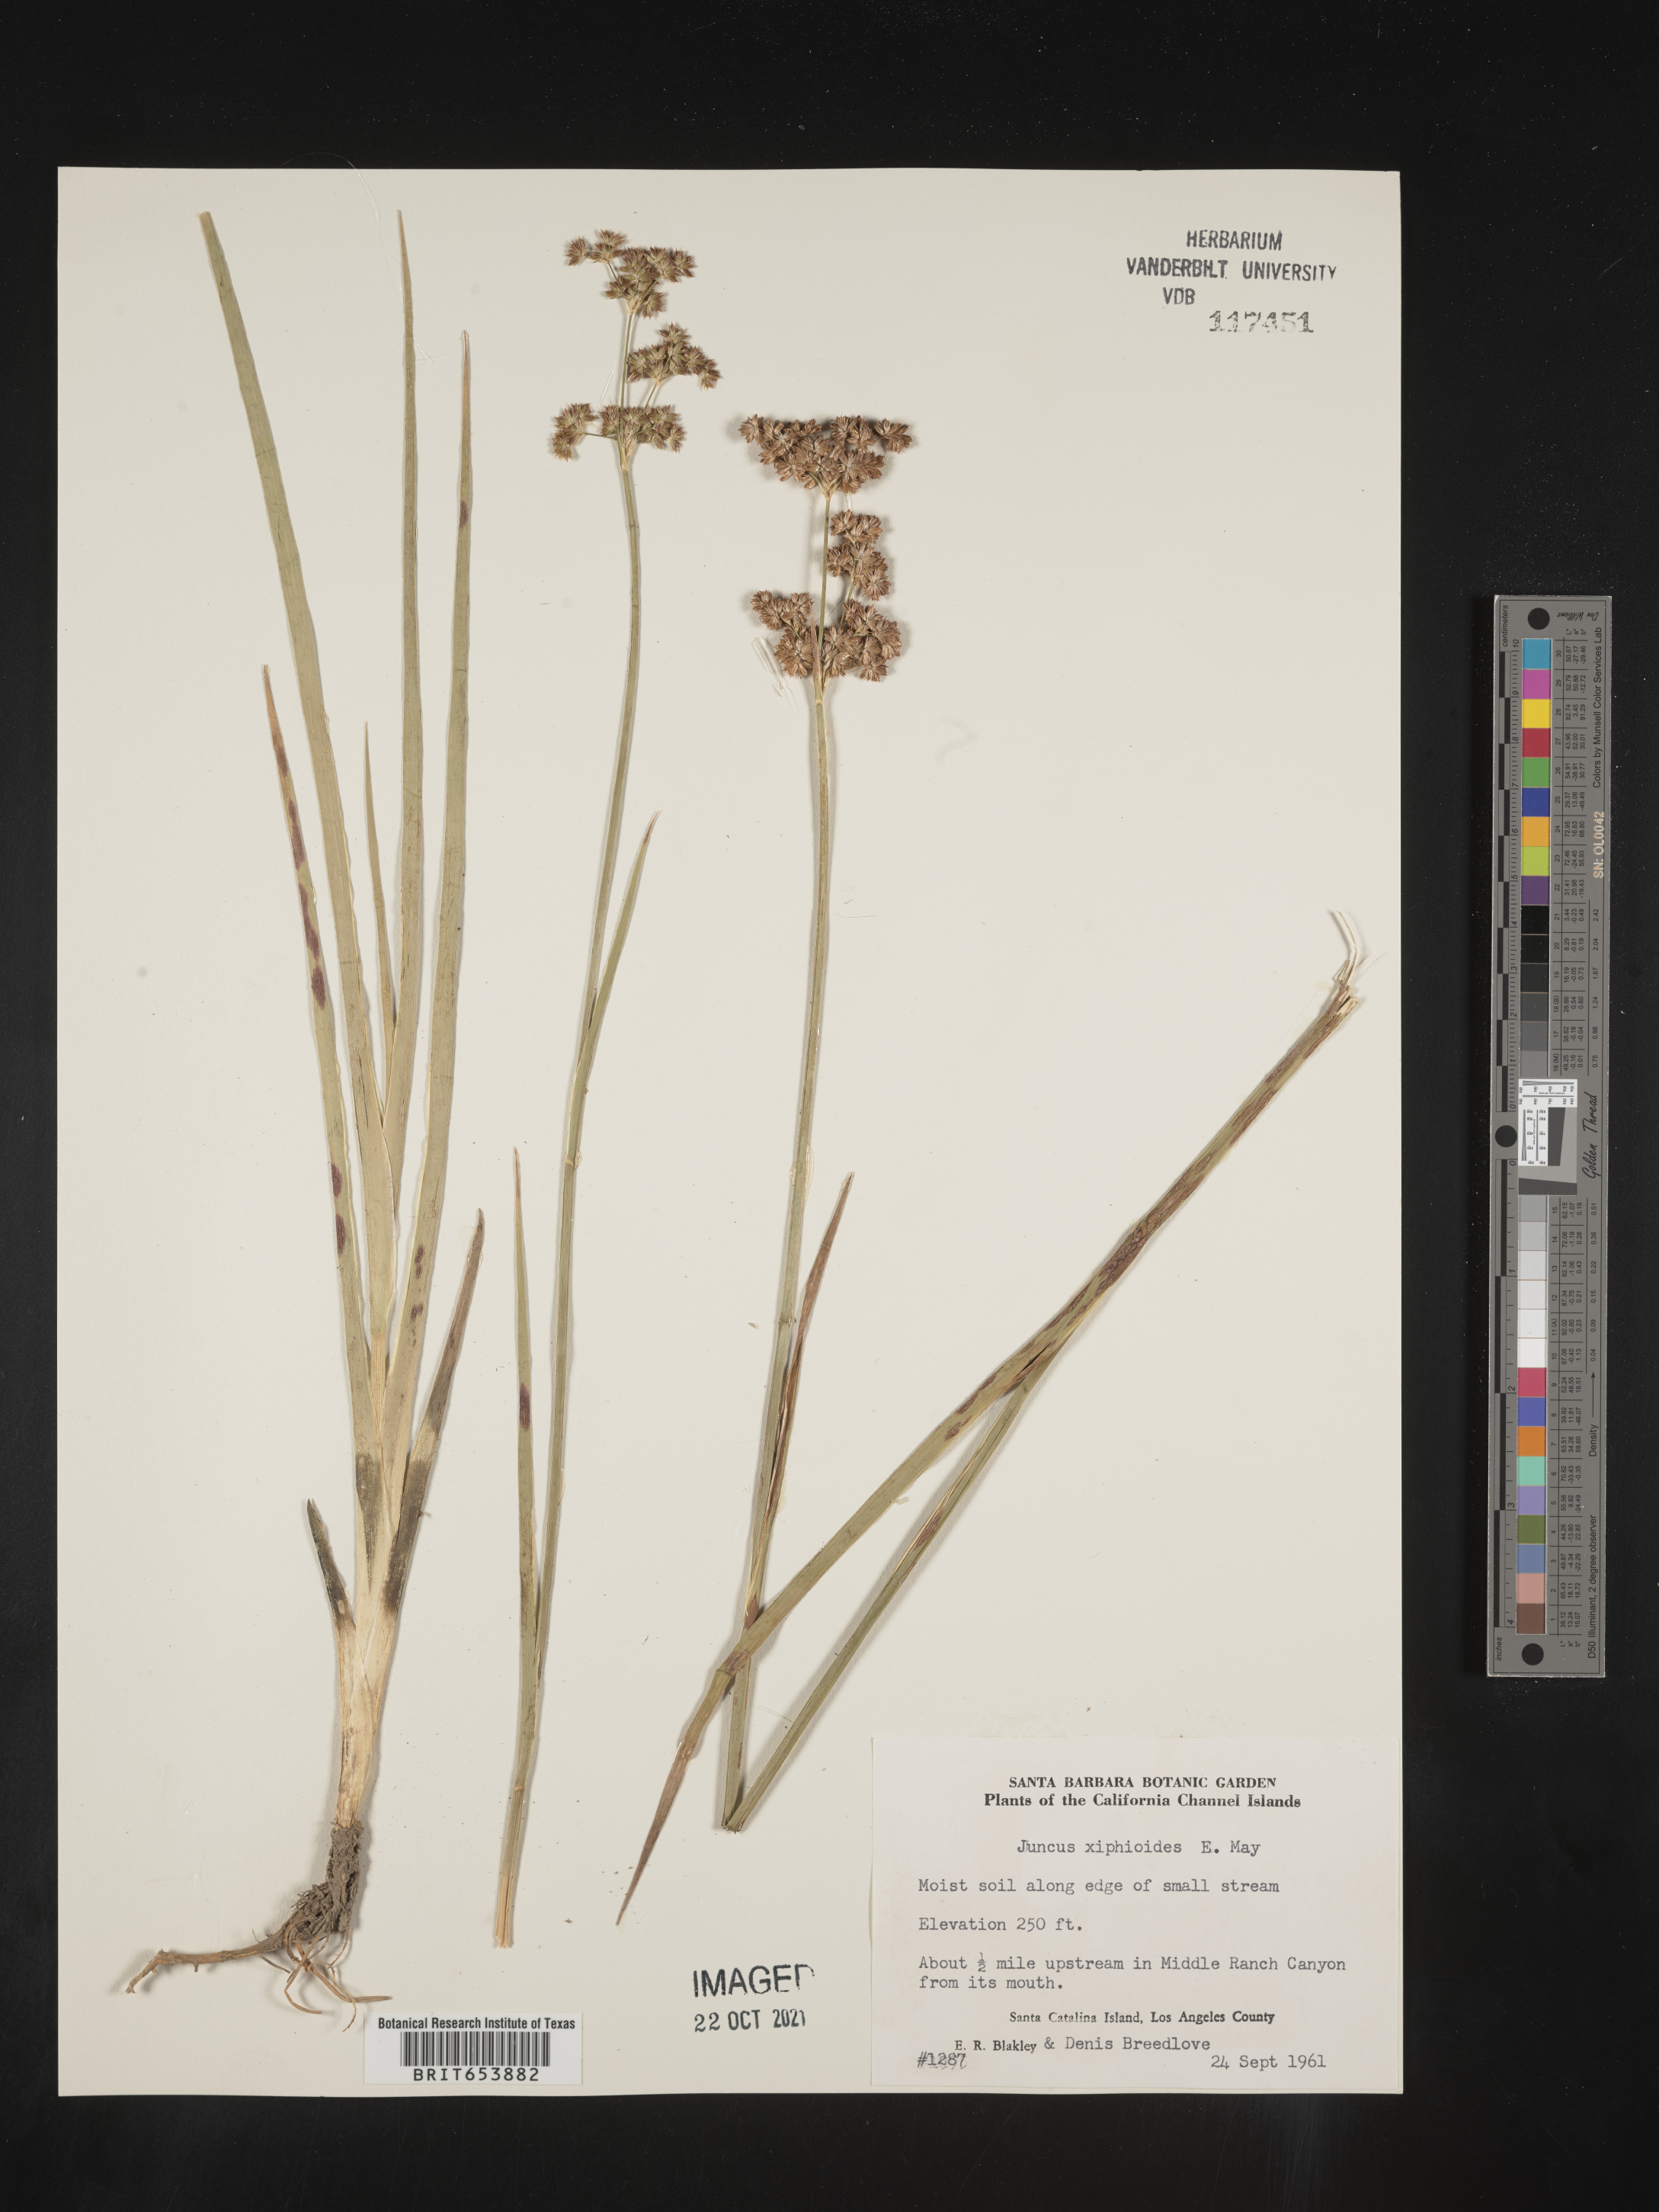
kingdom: Plantae
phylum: Tracheophyta
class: Liliopsida
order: Poales
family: Juncaceae
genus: Juncus
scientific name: Juncus xiphioides
